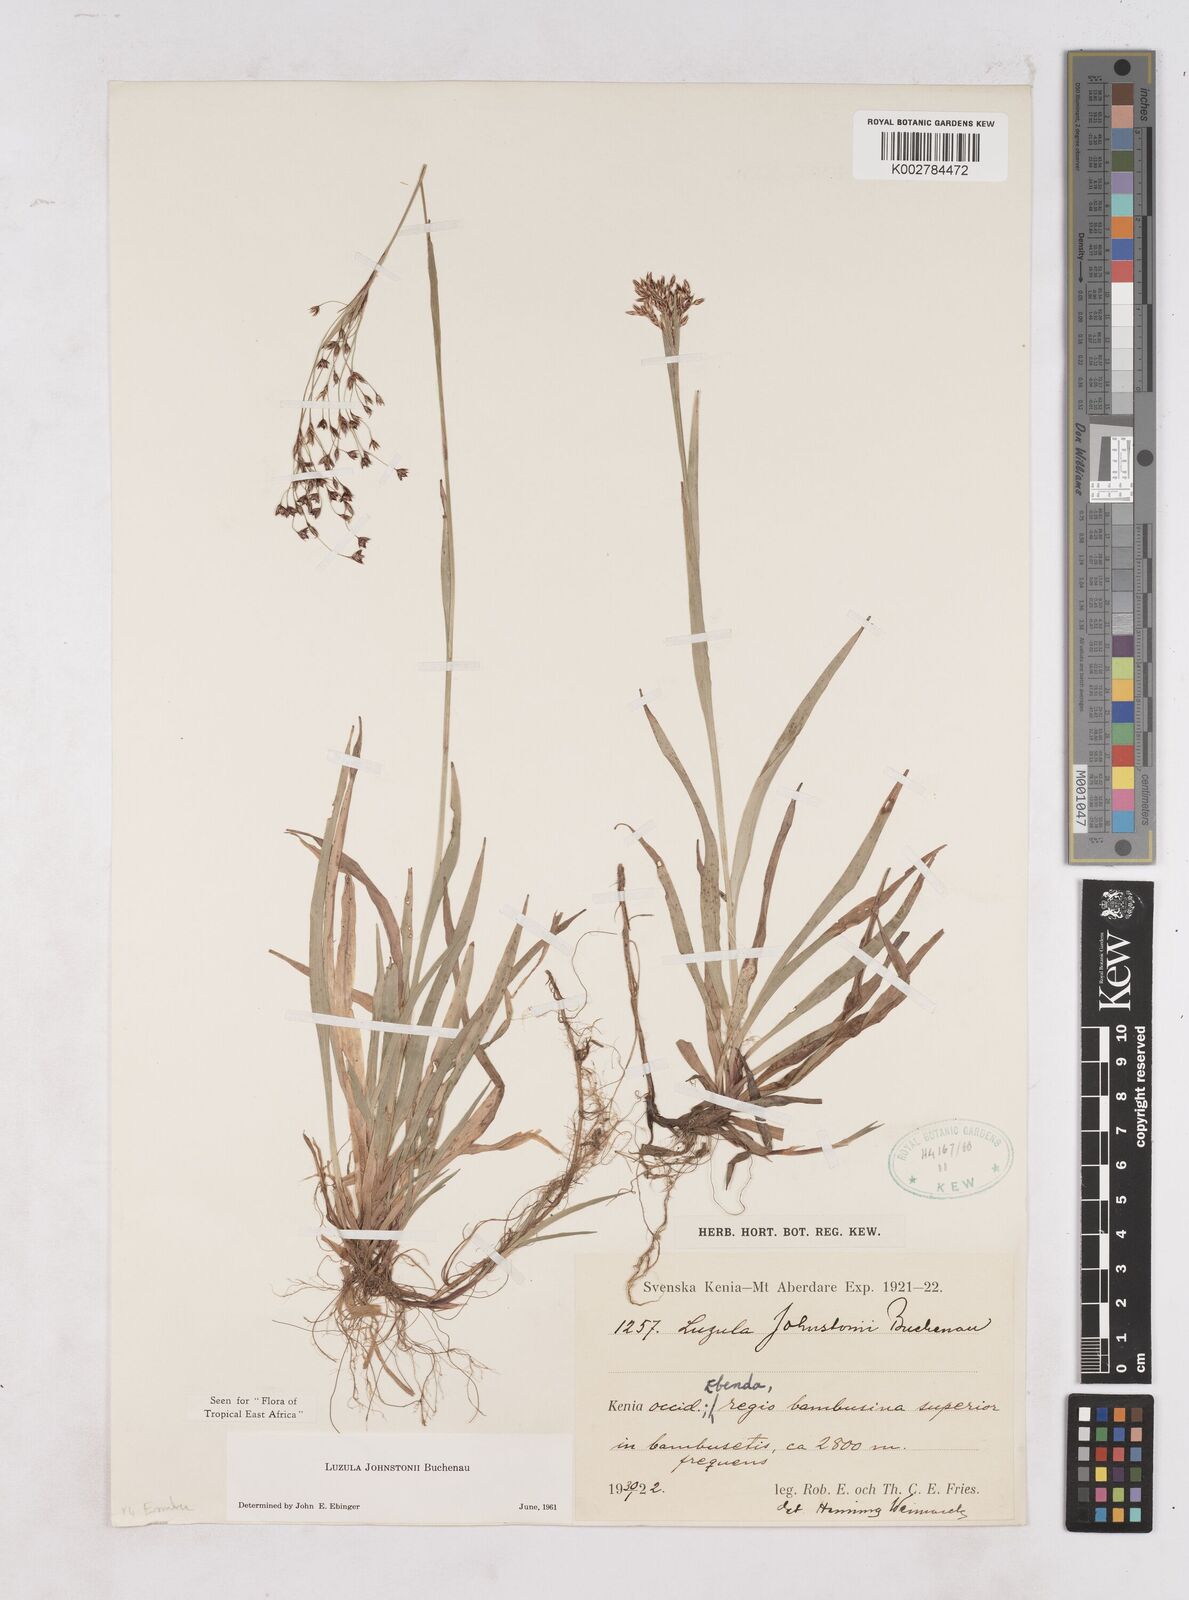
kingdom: Plantae
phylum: Tracheophyta
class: Liliopsida
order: Poales
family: Juncaceae
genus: Luzula
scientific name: Luzula johnstonii
